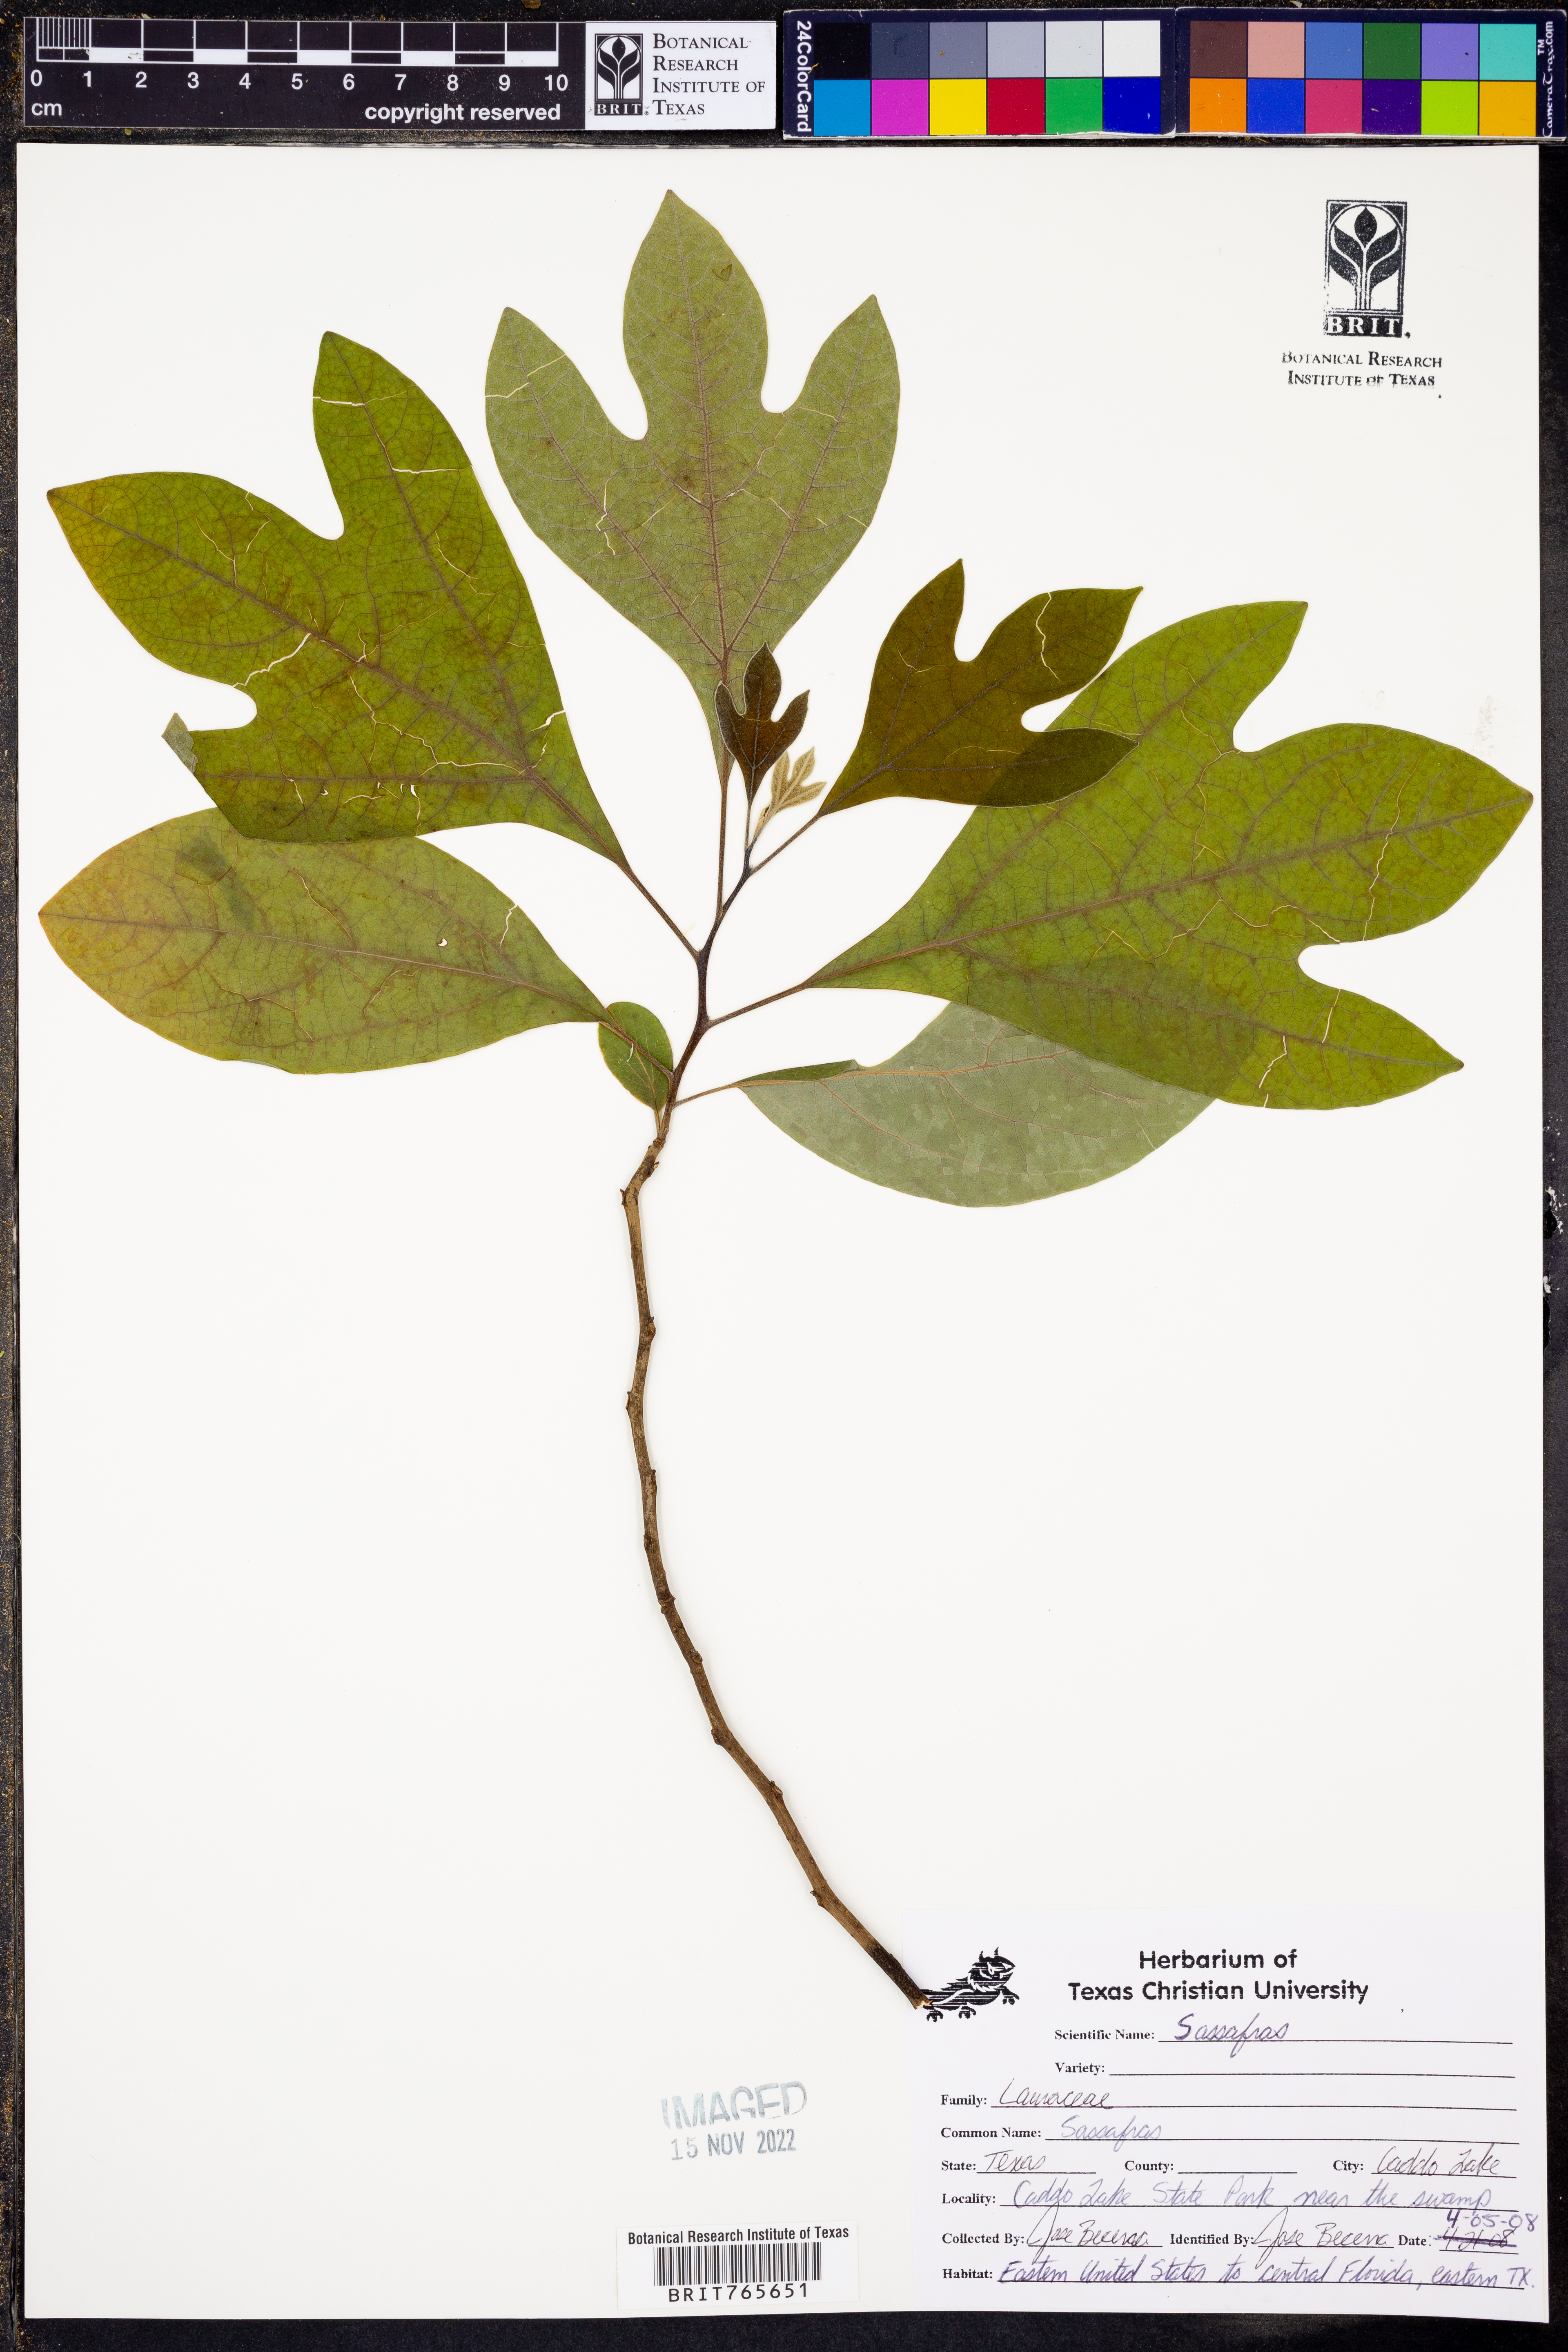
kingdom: Plantae
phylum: Tracheophyta
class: Magnoliopsida
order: Laurales
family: Lauraceae
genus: Sassafras
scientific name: Sassafras
